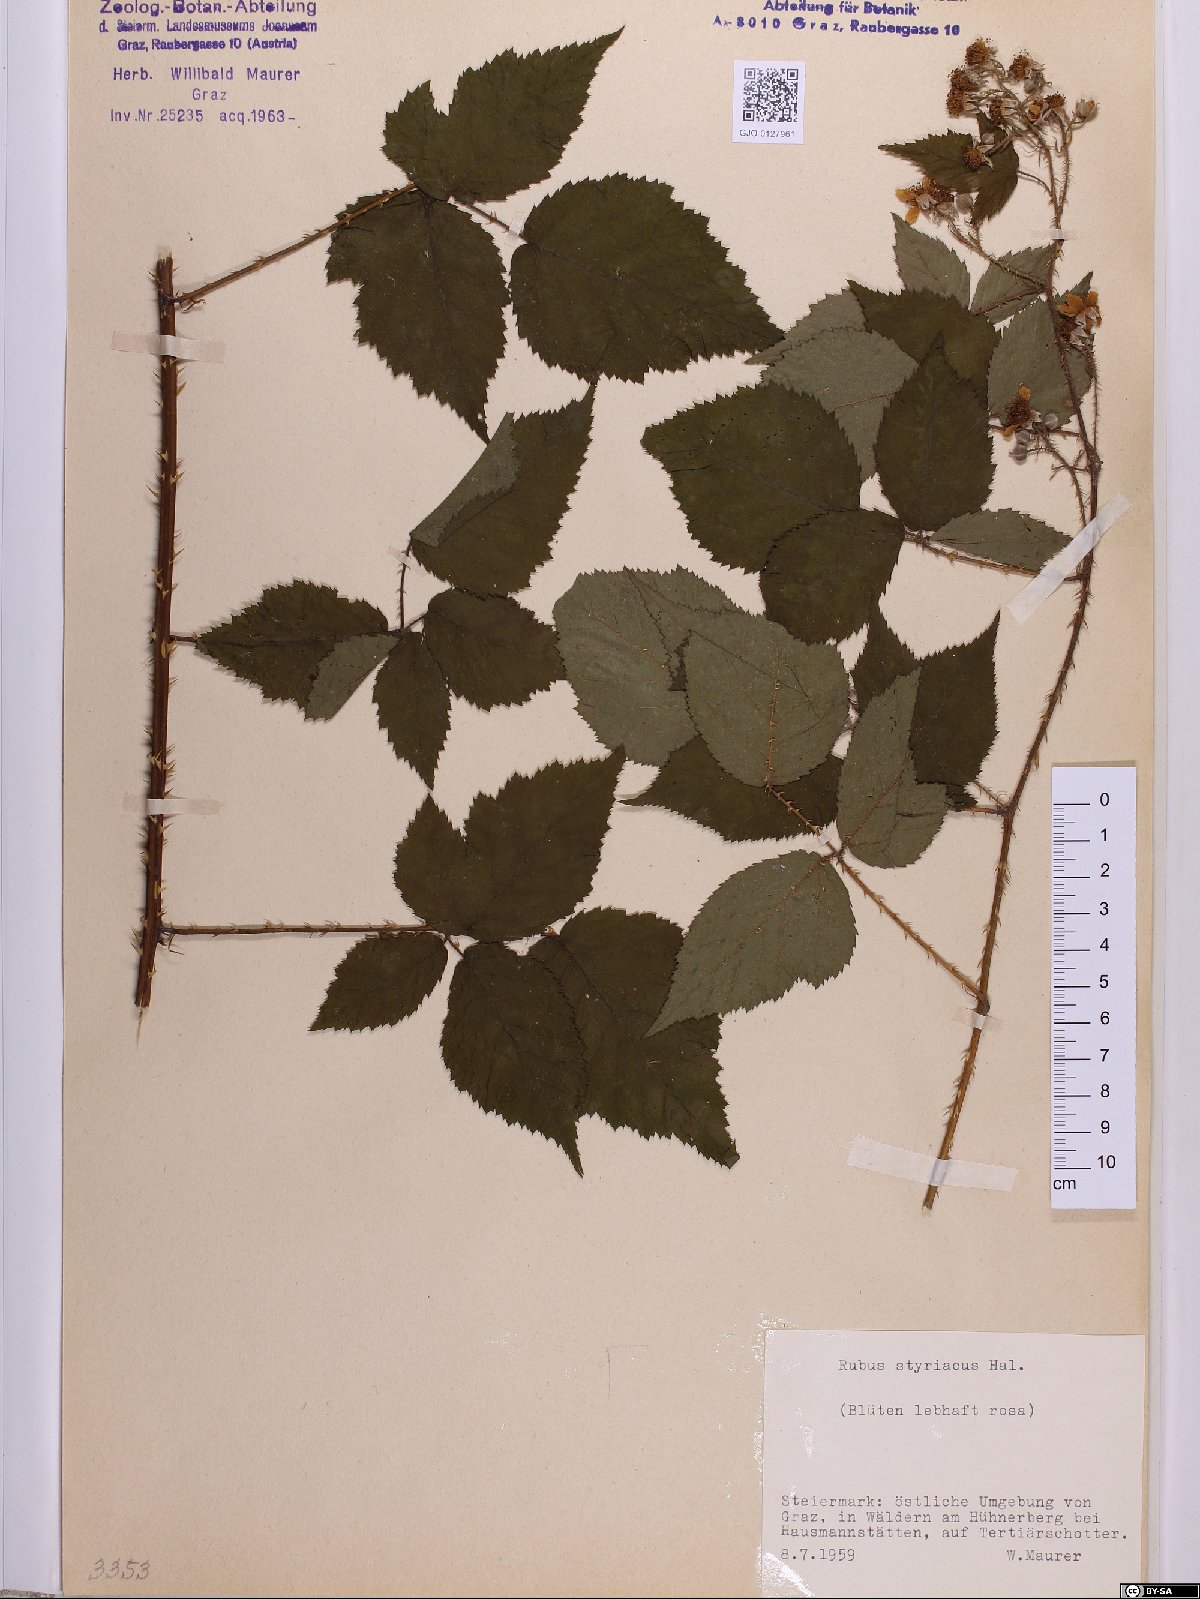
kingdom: Plantae
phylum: Tracheophyta
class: Magnoliopsida
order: Rosales
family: Rosaceae
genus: Rubus
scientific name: Rubus styriacus
